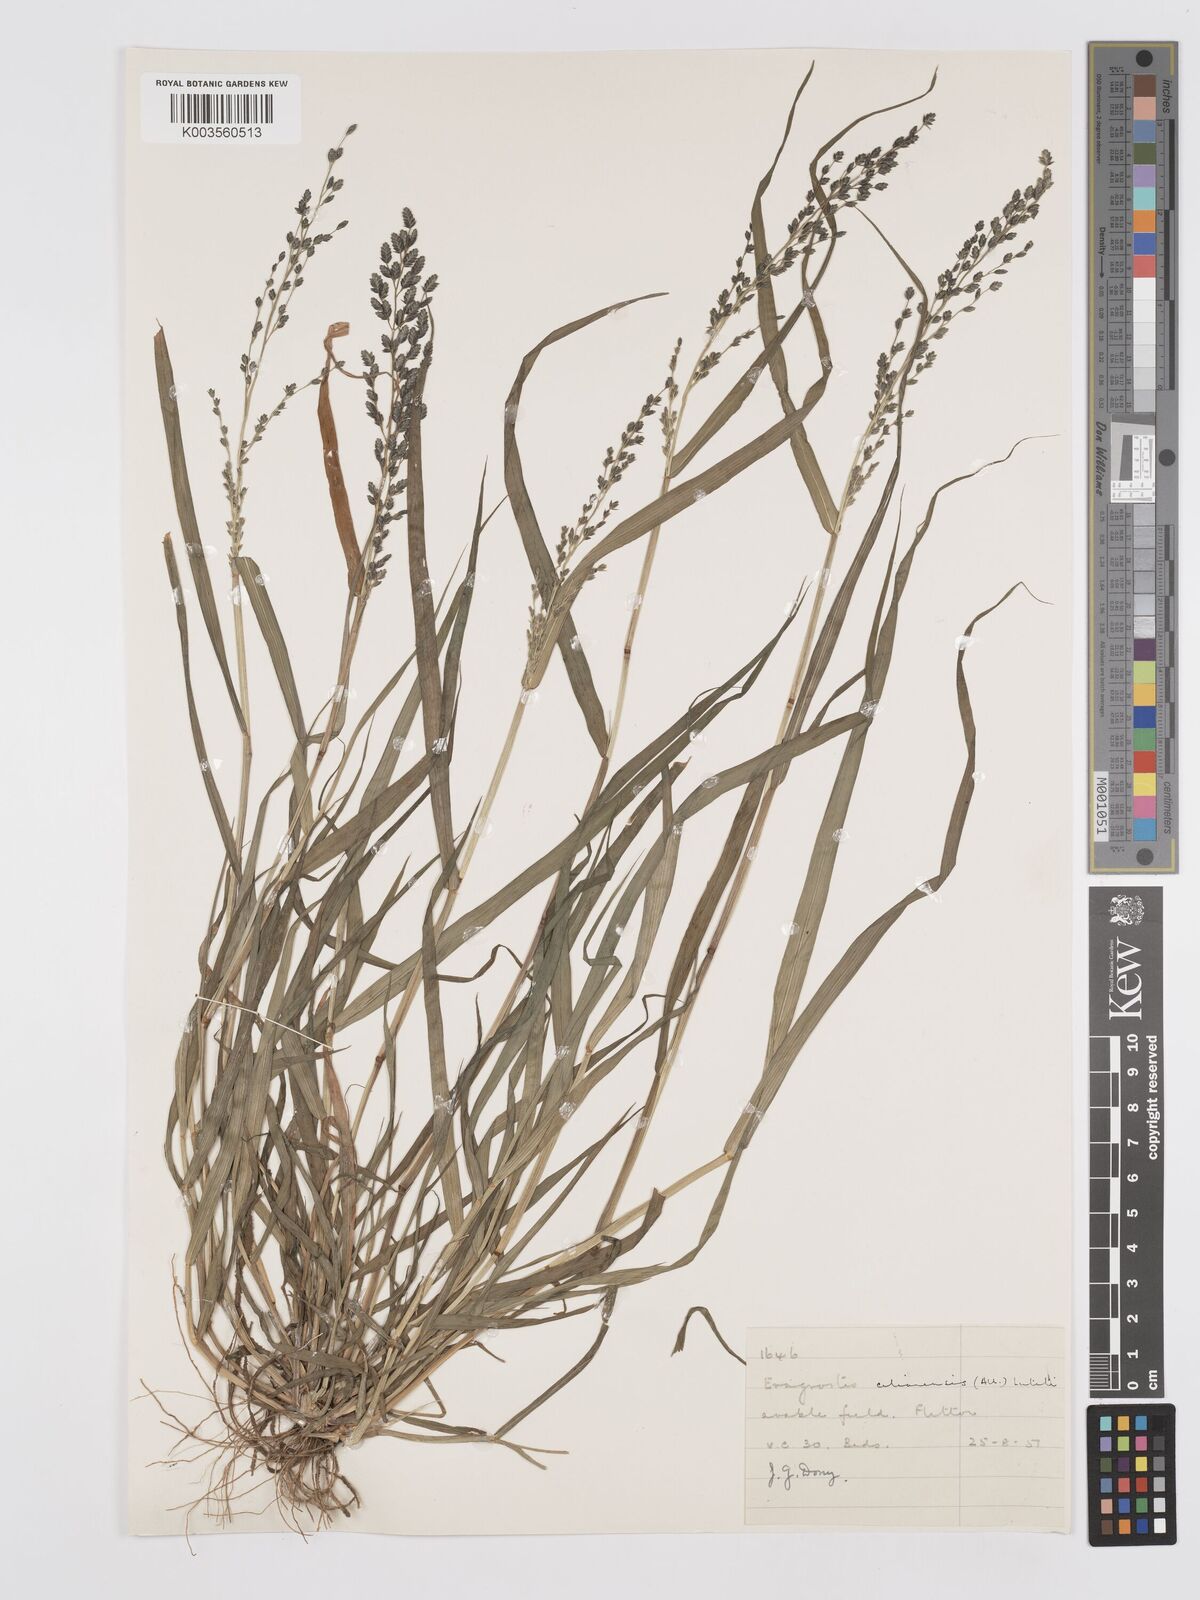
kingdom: Plantae
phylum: Tracheophyta
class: Liliopsida
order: Poales
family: Poaceae
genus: Eragrostis
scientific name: Eragrostis cilianensis
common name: Stinkgrass
